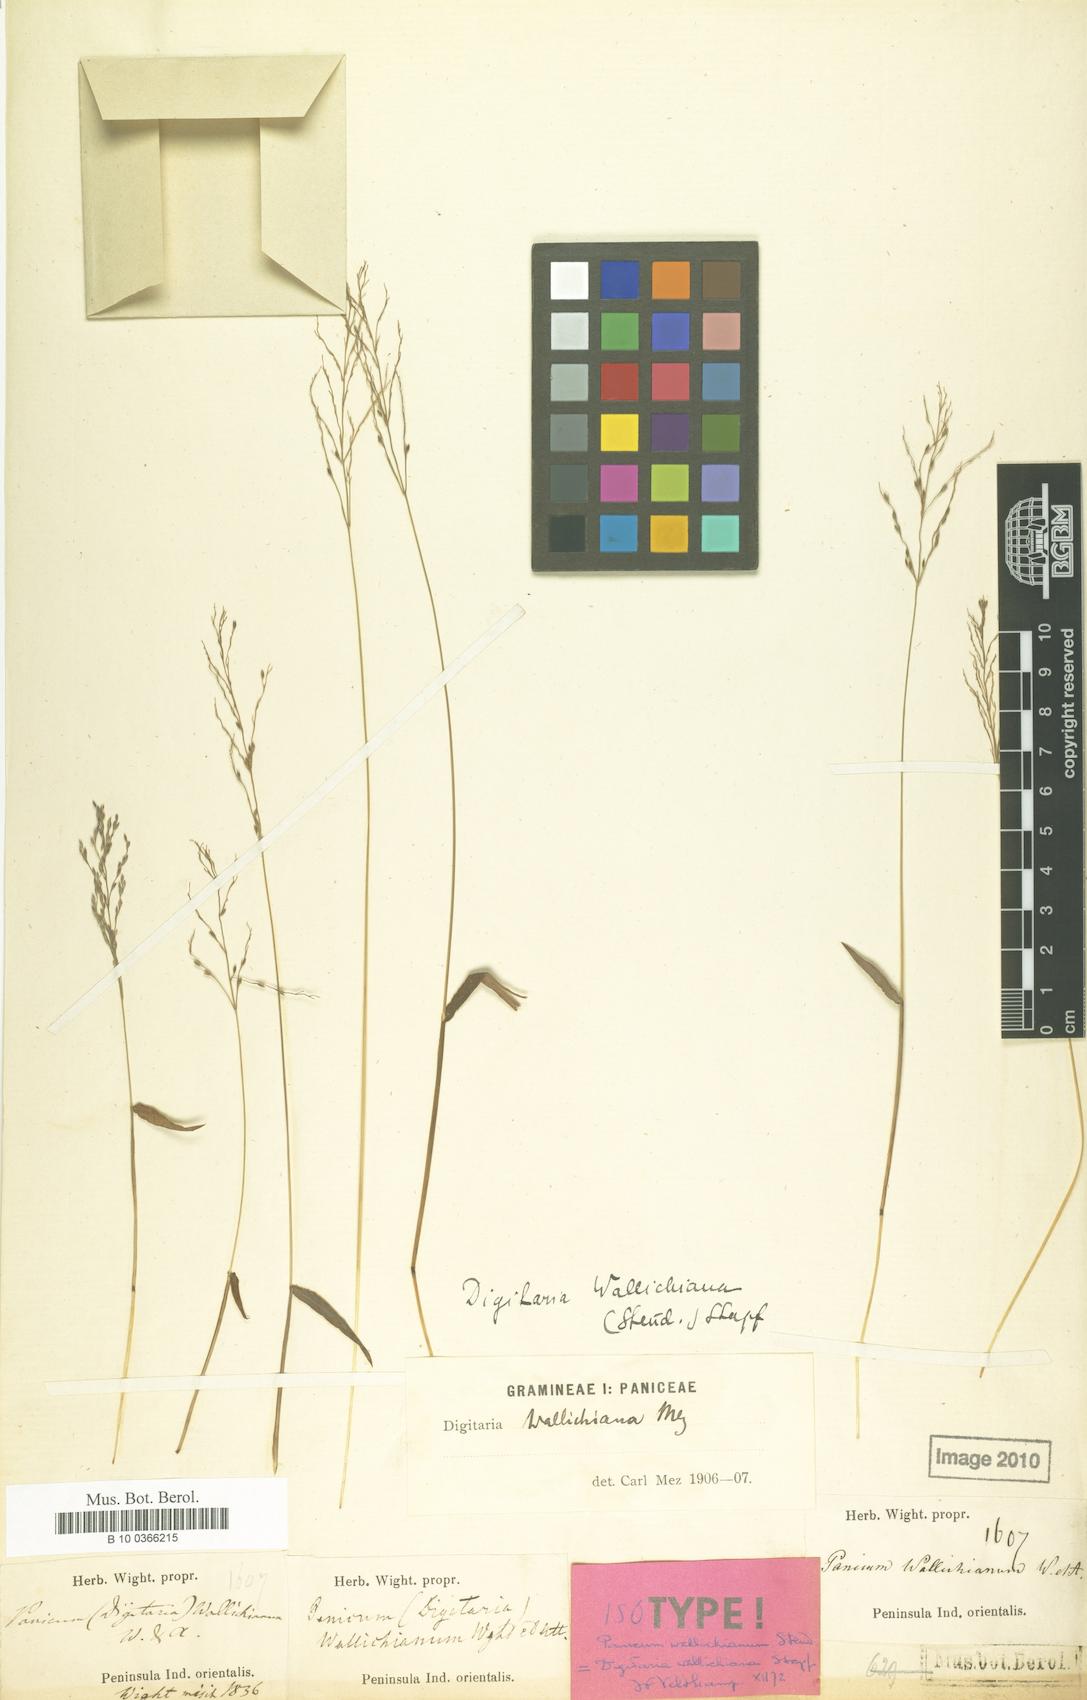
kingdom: Plantae
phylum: Tracheophyta
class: Liliopsida
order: Poales
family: Poaceae
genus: Digitaria
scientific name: Digitaria wallichiana
